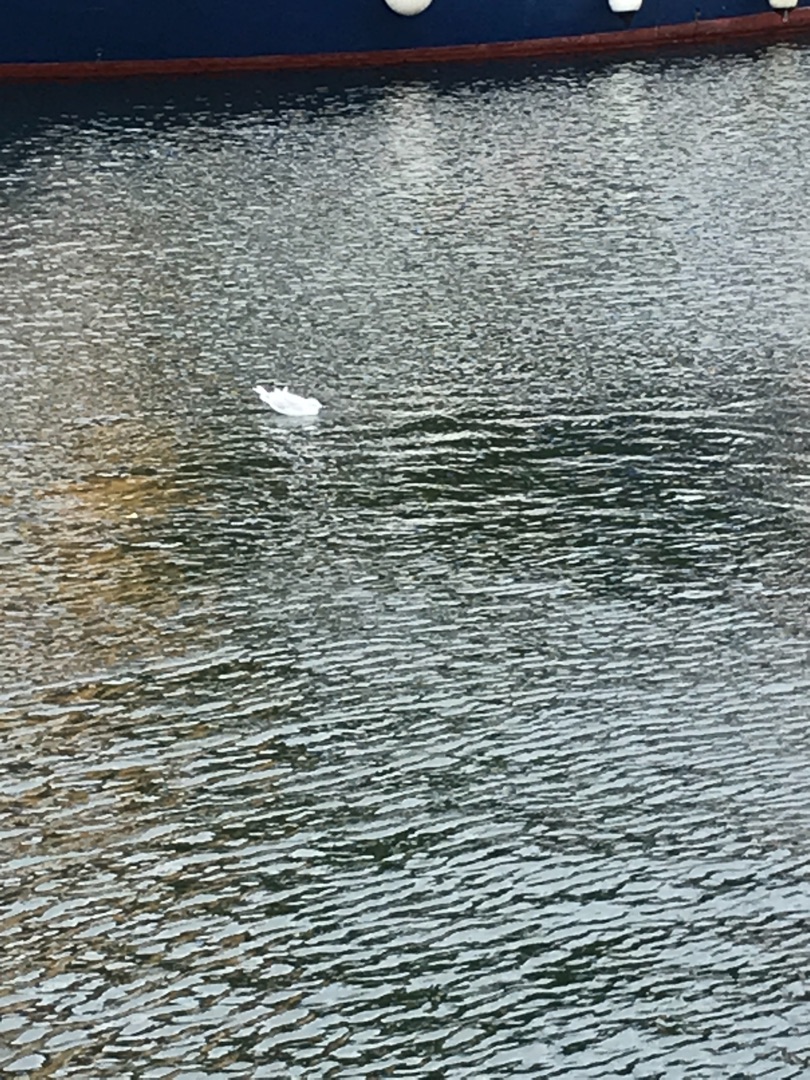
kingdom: Animalia
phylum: Chordata
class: Aves
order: Charadriiformes
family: Laridae
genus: Chroicocephalus
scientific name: Chroicocephalus ridibundus
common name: Hættemåge
